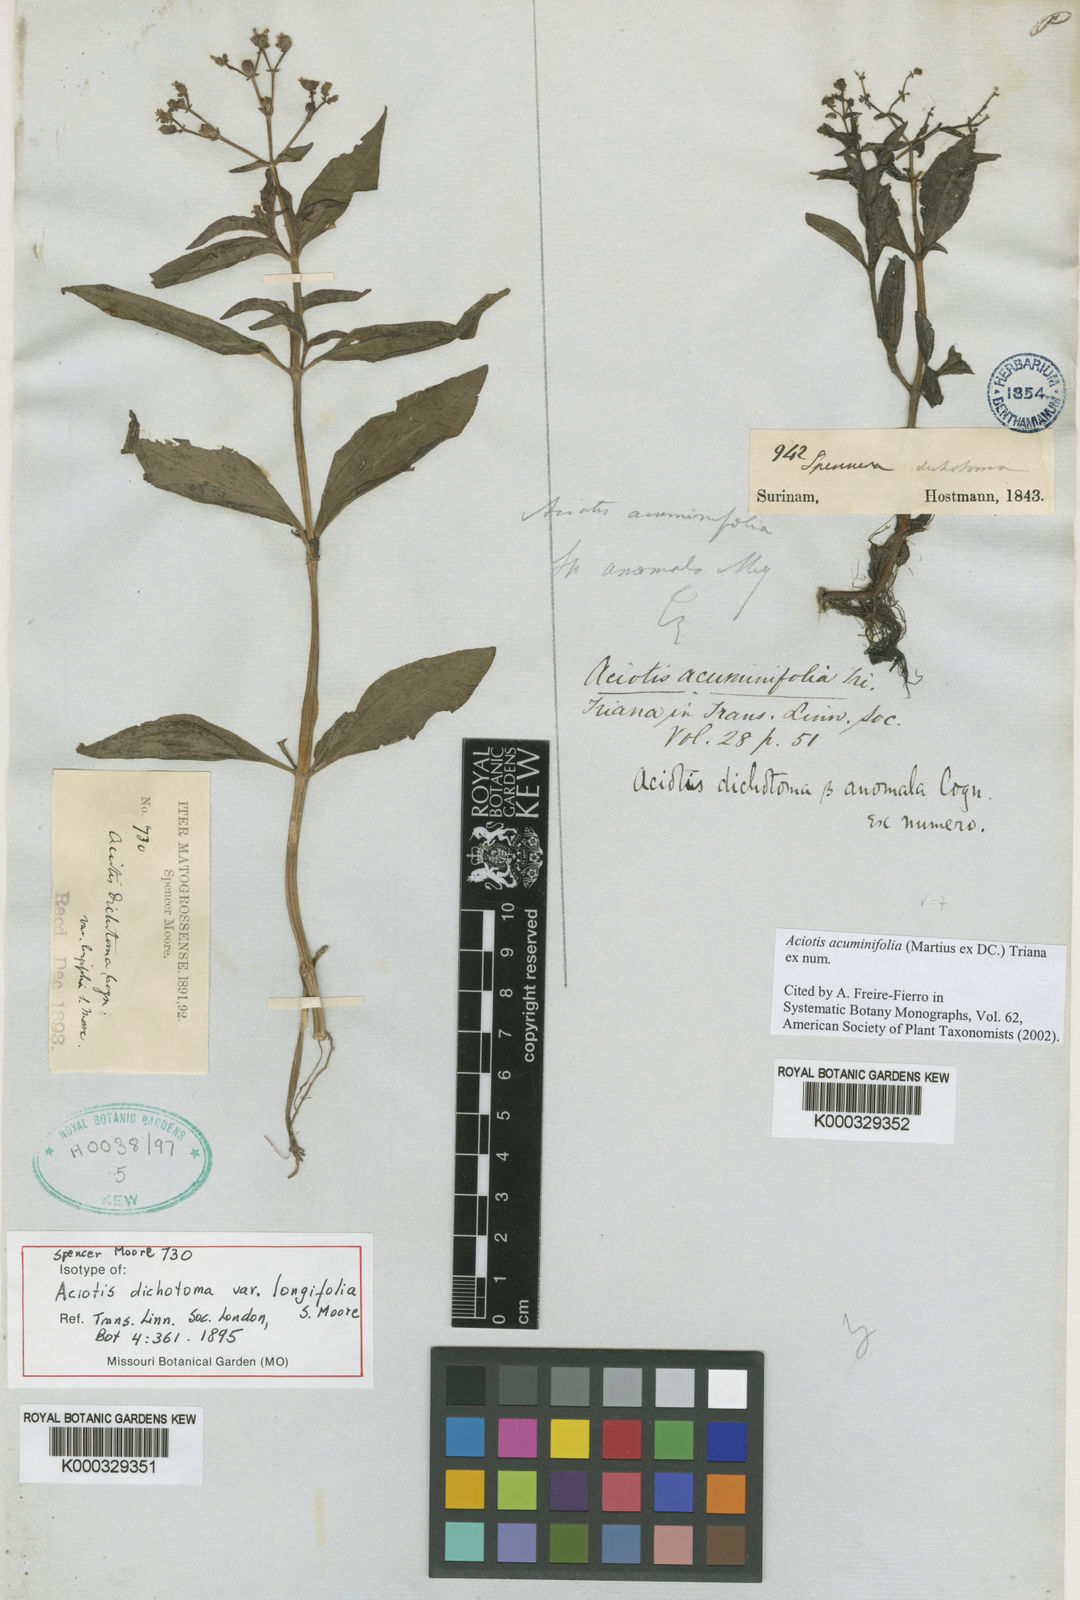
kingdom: Plantae
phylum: Tracheophyta
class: Magnoliopsida
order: Myrtales
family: Melastomataceae
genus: Aciotis
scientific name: Aciotis acuminifolia
